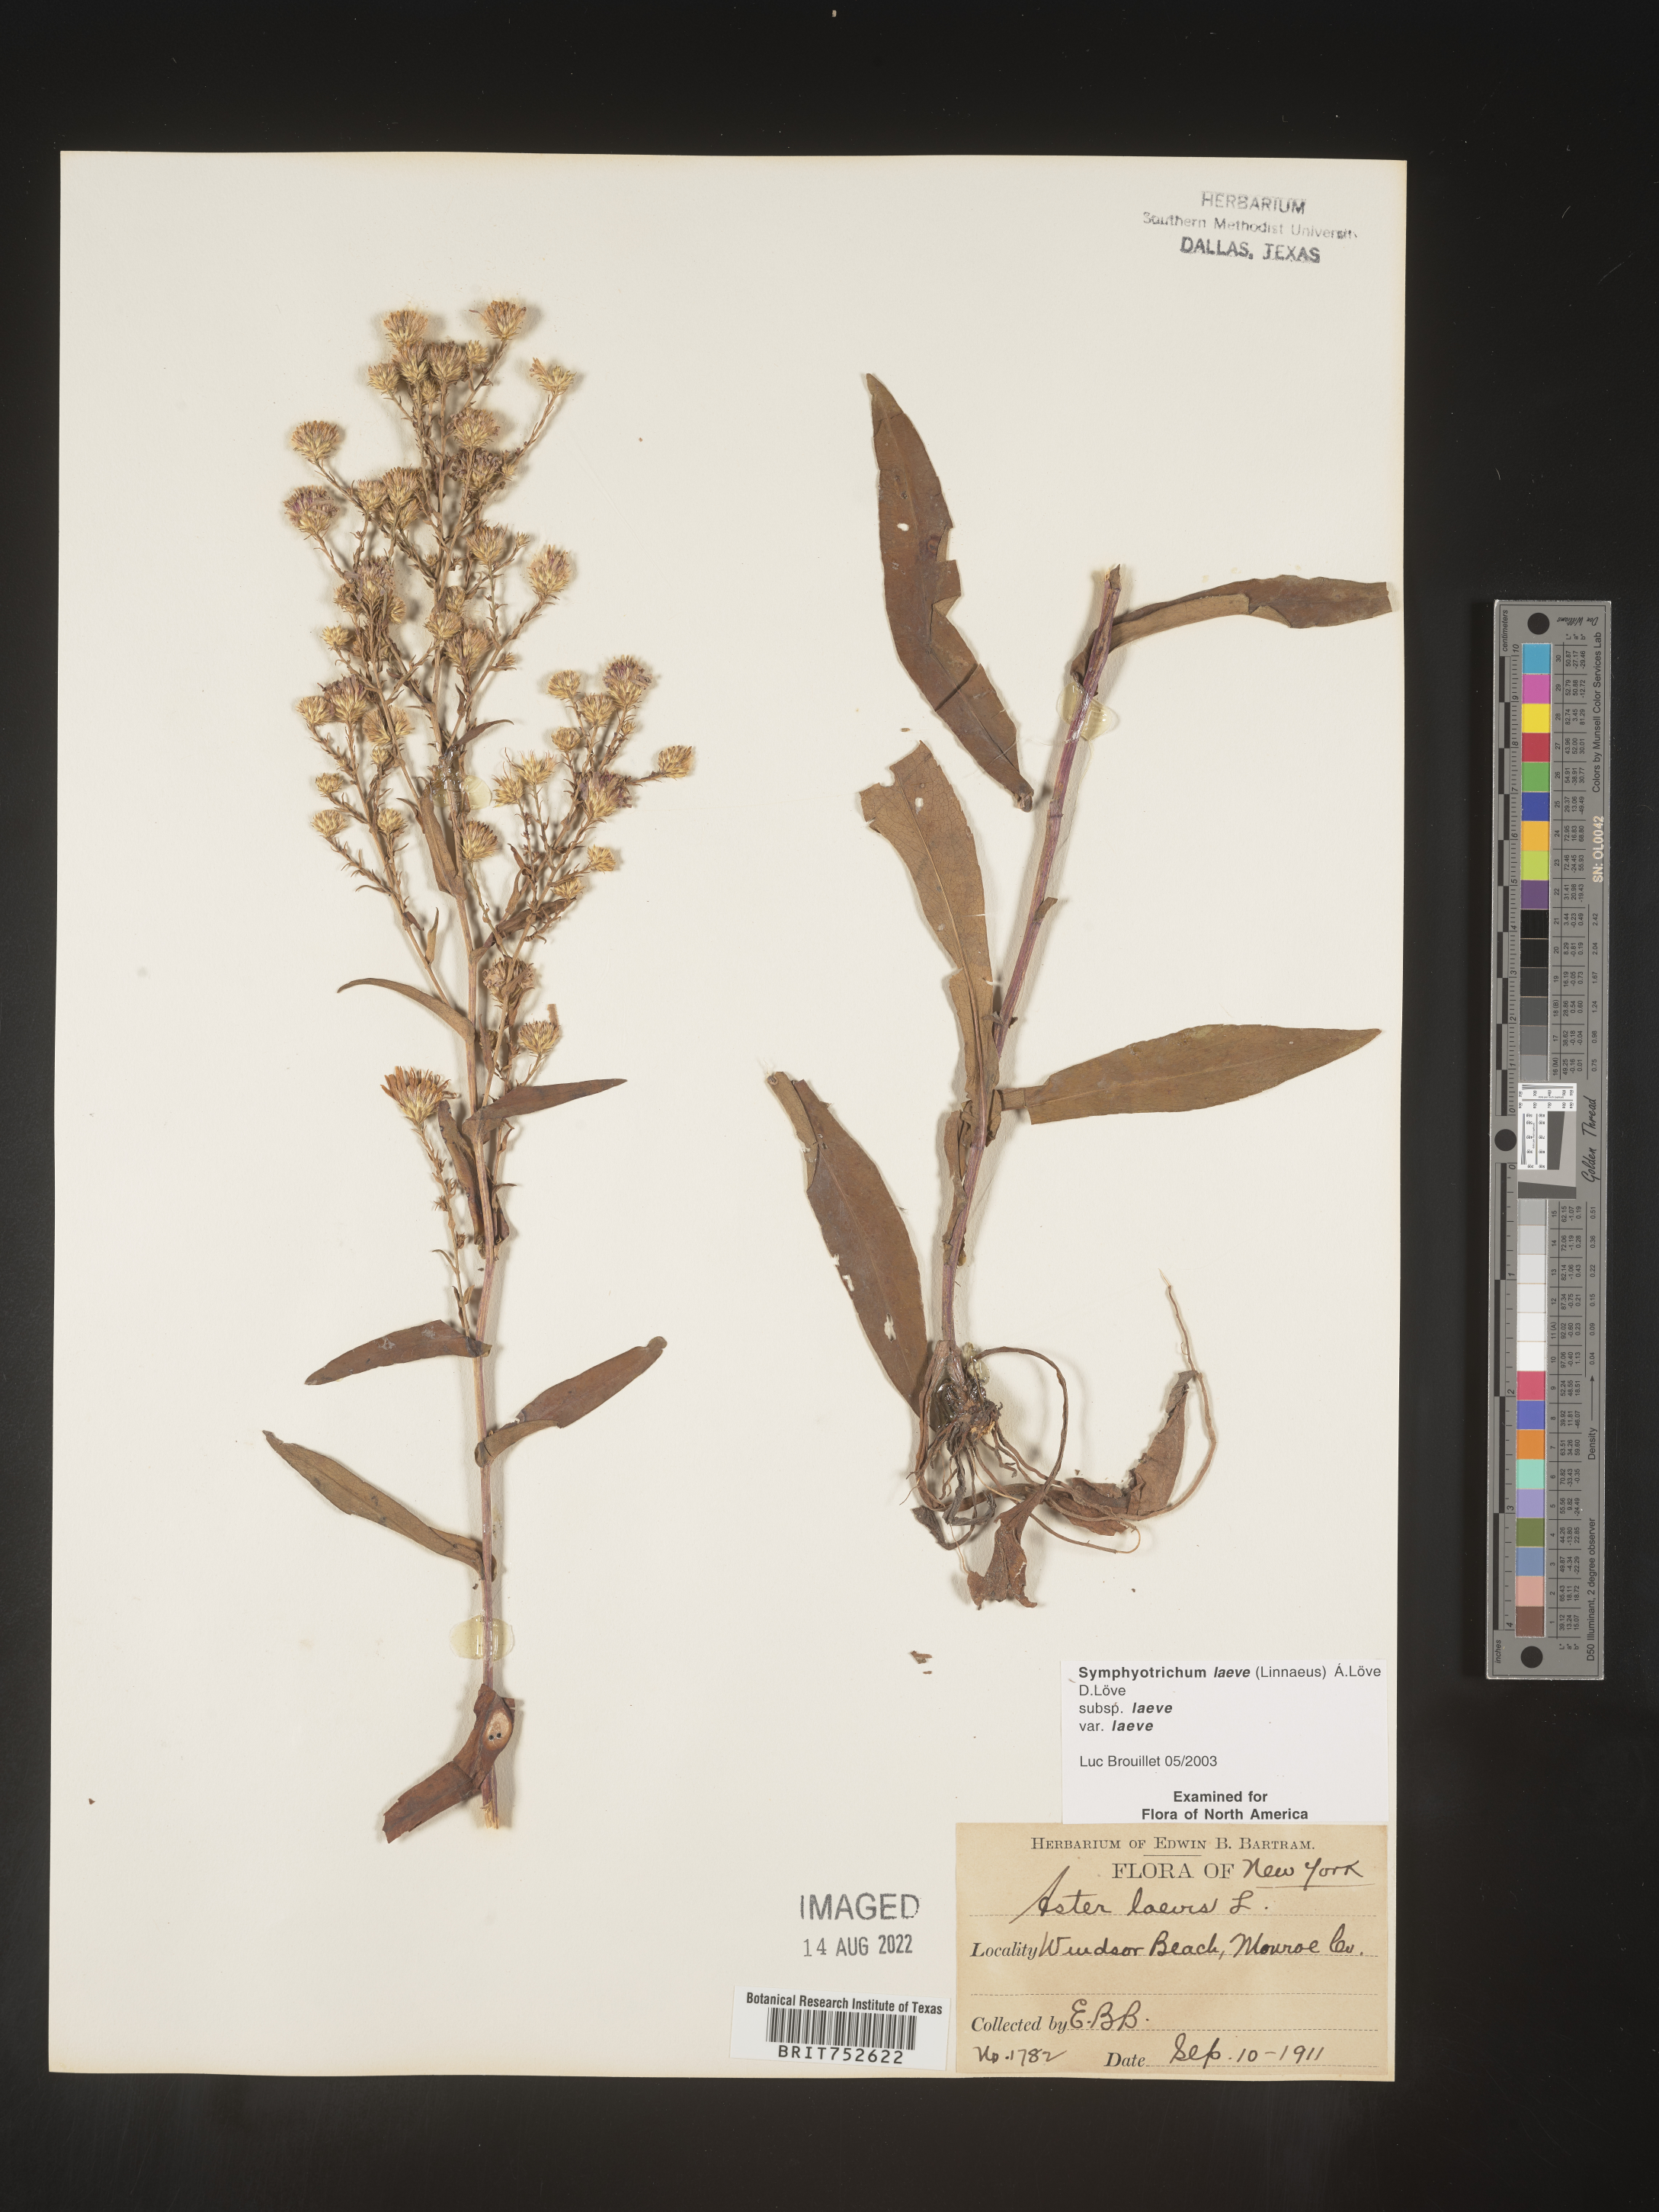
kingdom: Plantae
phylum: Tracheophyta
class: Magnoliopsida
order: Asterales
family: Asteraceae
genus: Symphyotrichum
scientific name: Symphyotrichum laeve
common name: Glaucous aster
